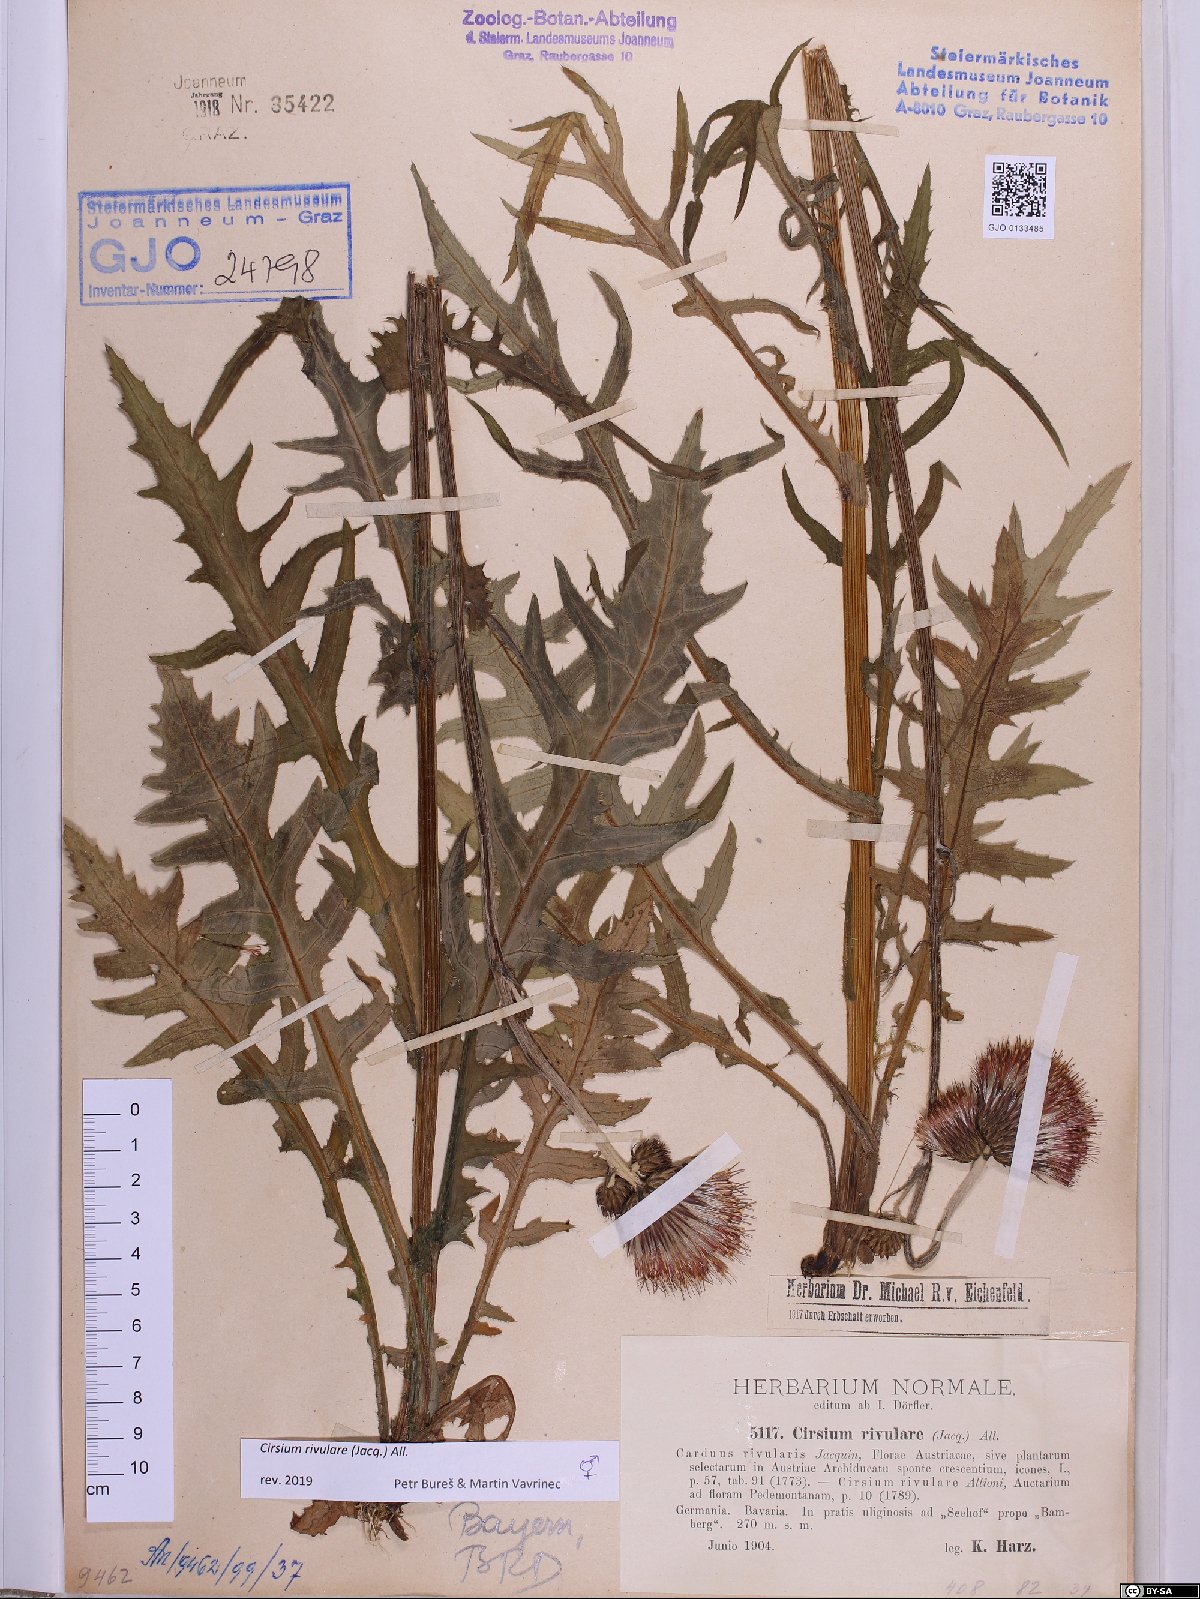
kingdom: Plantae
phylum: Tracheophyta
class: Magnoliopsida
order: Asterales
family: Asteraceae
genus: Cirsium
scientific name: Cirsium rivulare
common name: Brook thistle
